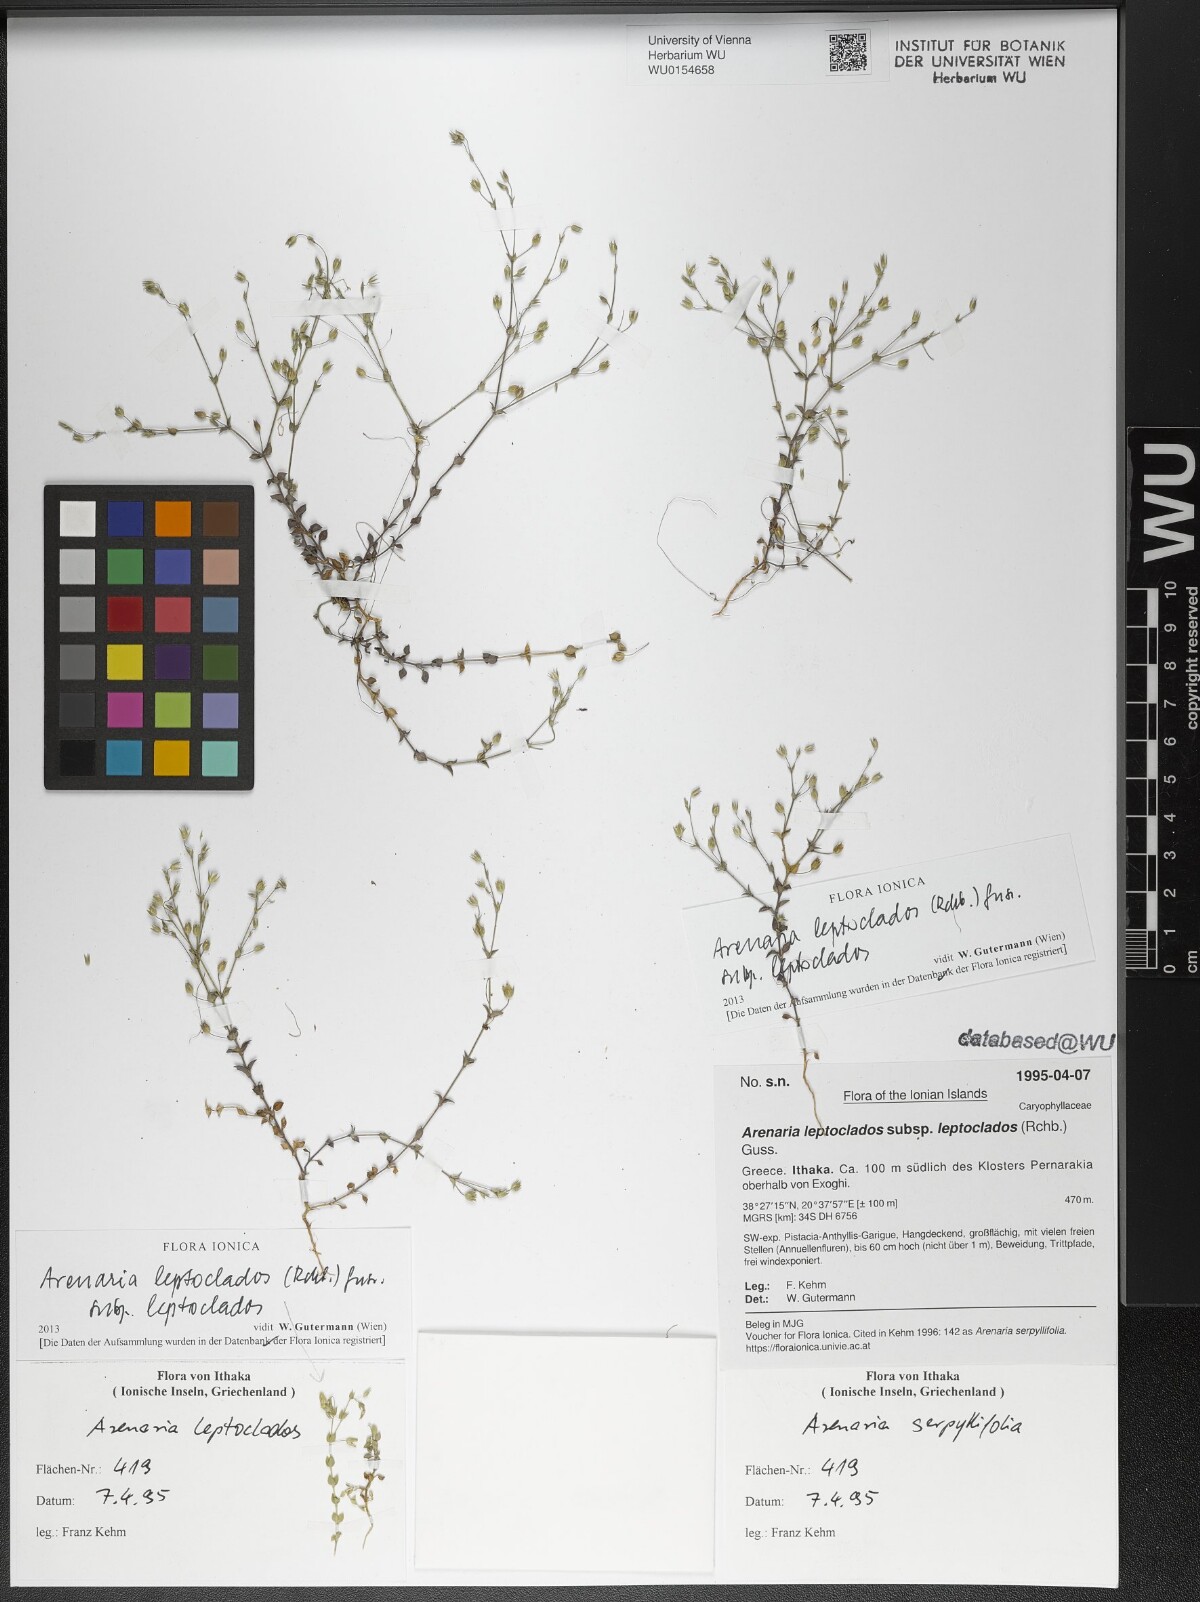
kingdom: Plantae
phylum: Tracheophyta
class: Magnoliopsida
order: Caryophyllales
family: Caryophyllaceae
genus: Arenaria
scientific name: Arenaria leptoclados
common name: Thyme-leaved sandwort
